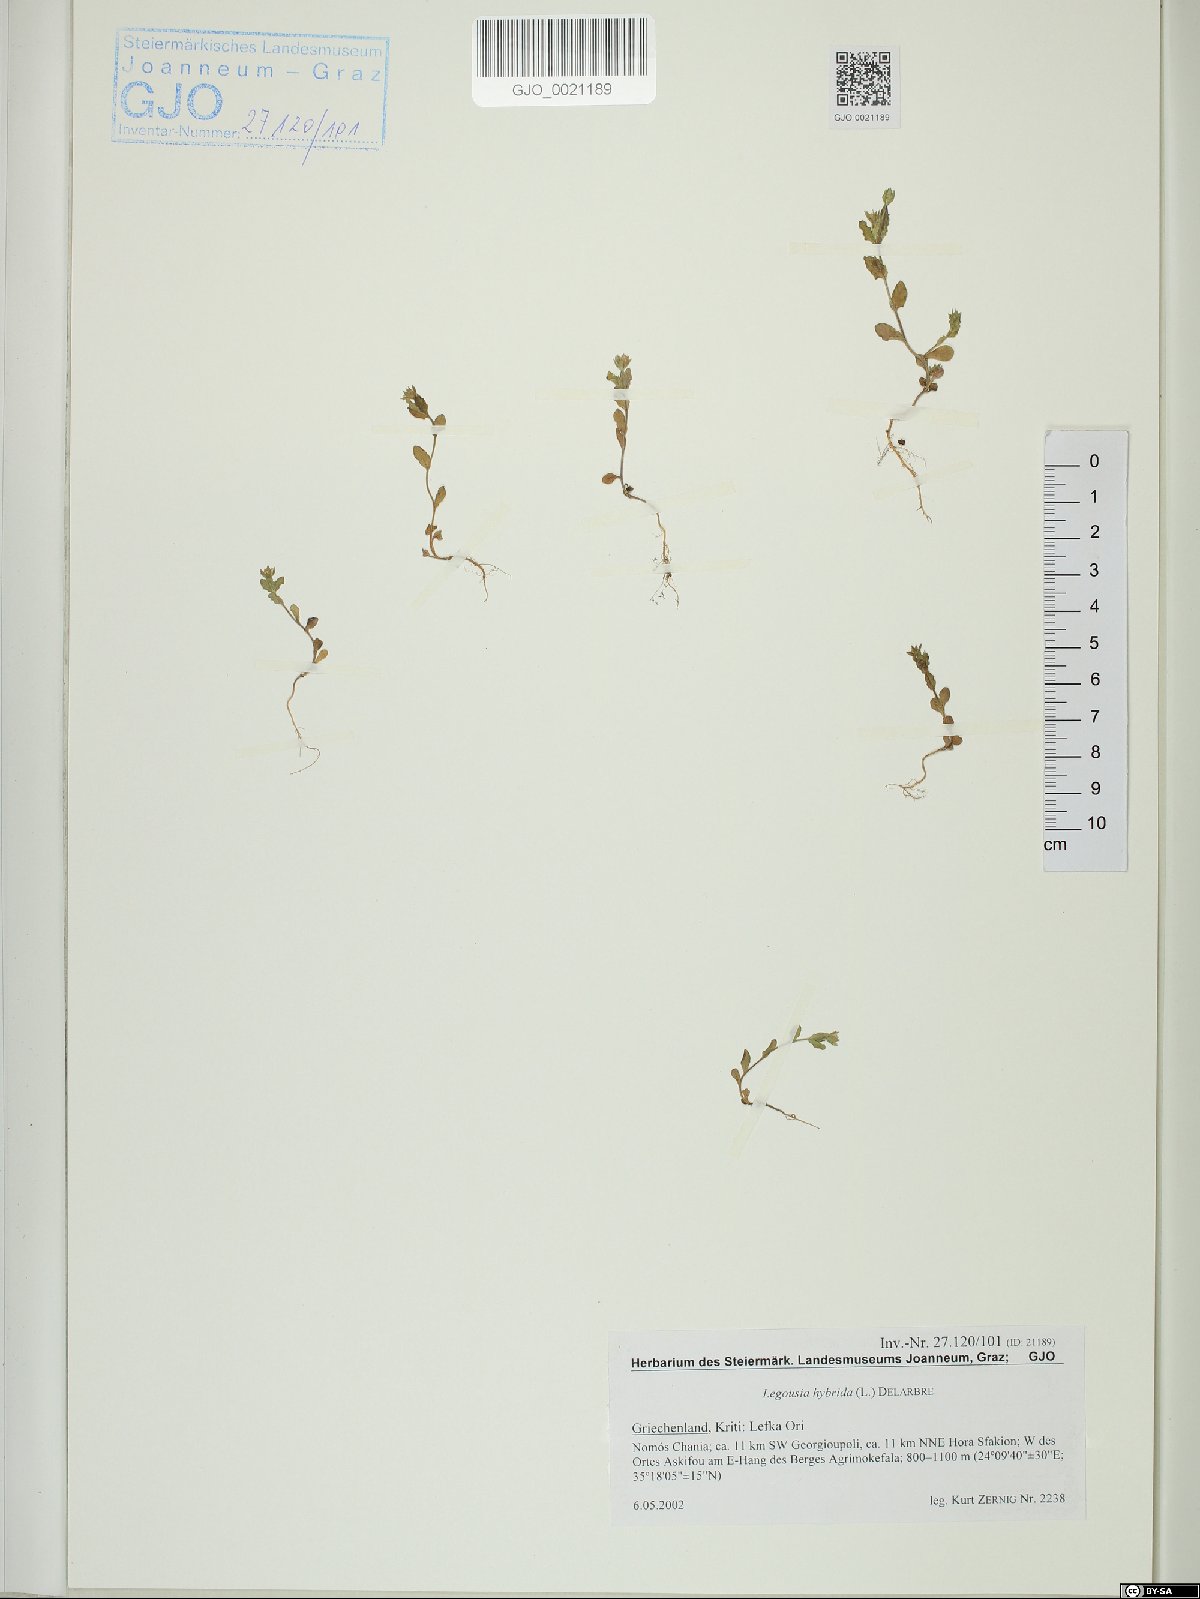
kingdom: Plantae
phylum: Tracheophyta
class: Magnoliopsida
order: Asterales
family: Campanulaceae
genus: Legousia
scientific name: Legousia hybrida
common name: Venus's-looking-glass
